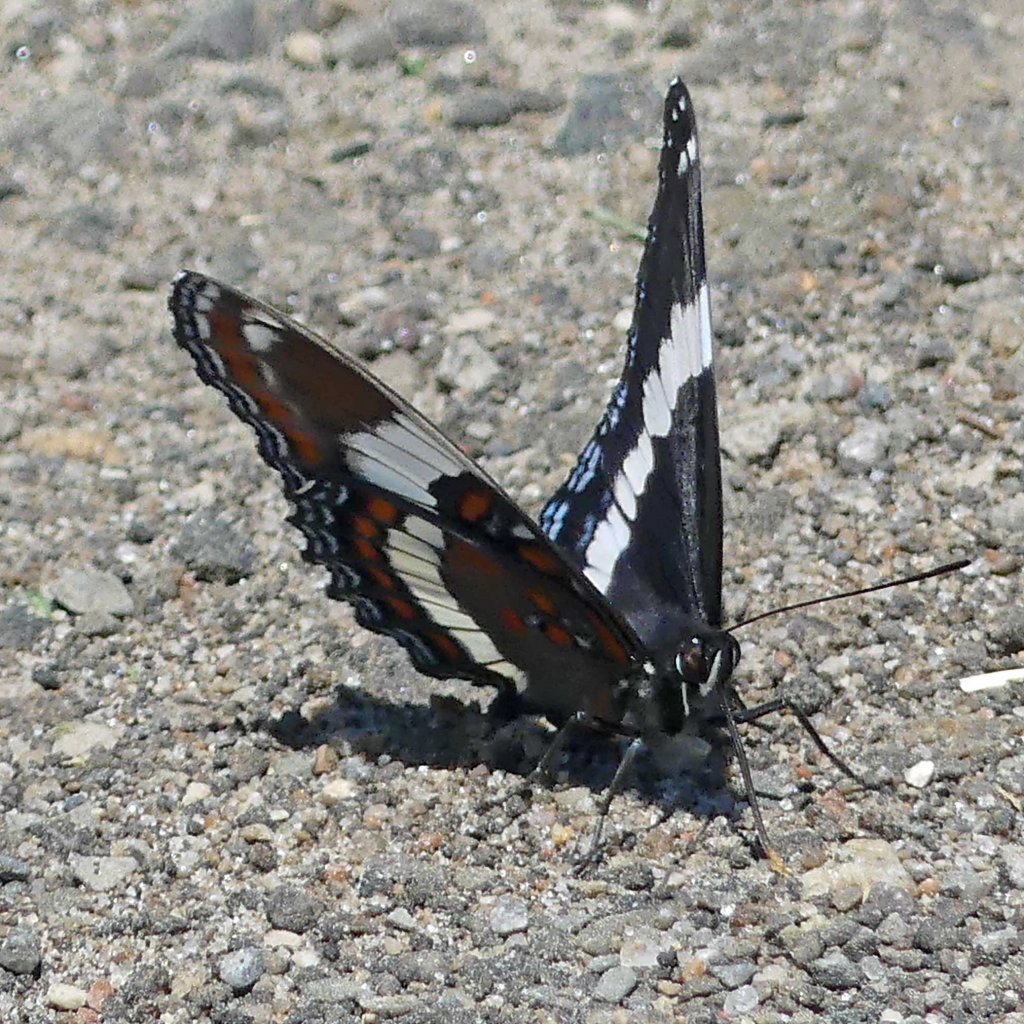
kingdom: Animalia
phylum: Arthropoda
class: Insecta
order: Lepidoptera
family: Nymphalidae
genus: Limenitis
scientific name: Limenitis arthemis
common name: Red-spotted Admiral
